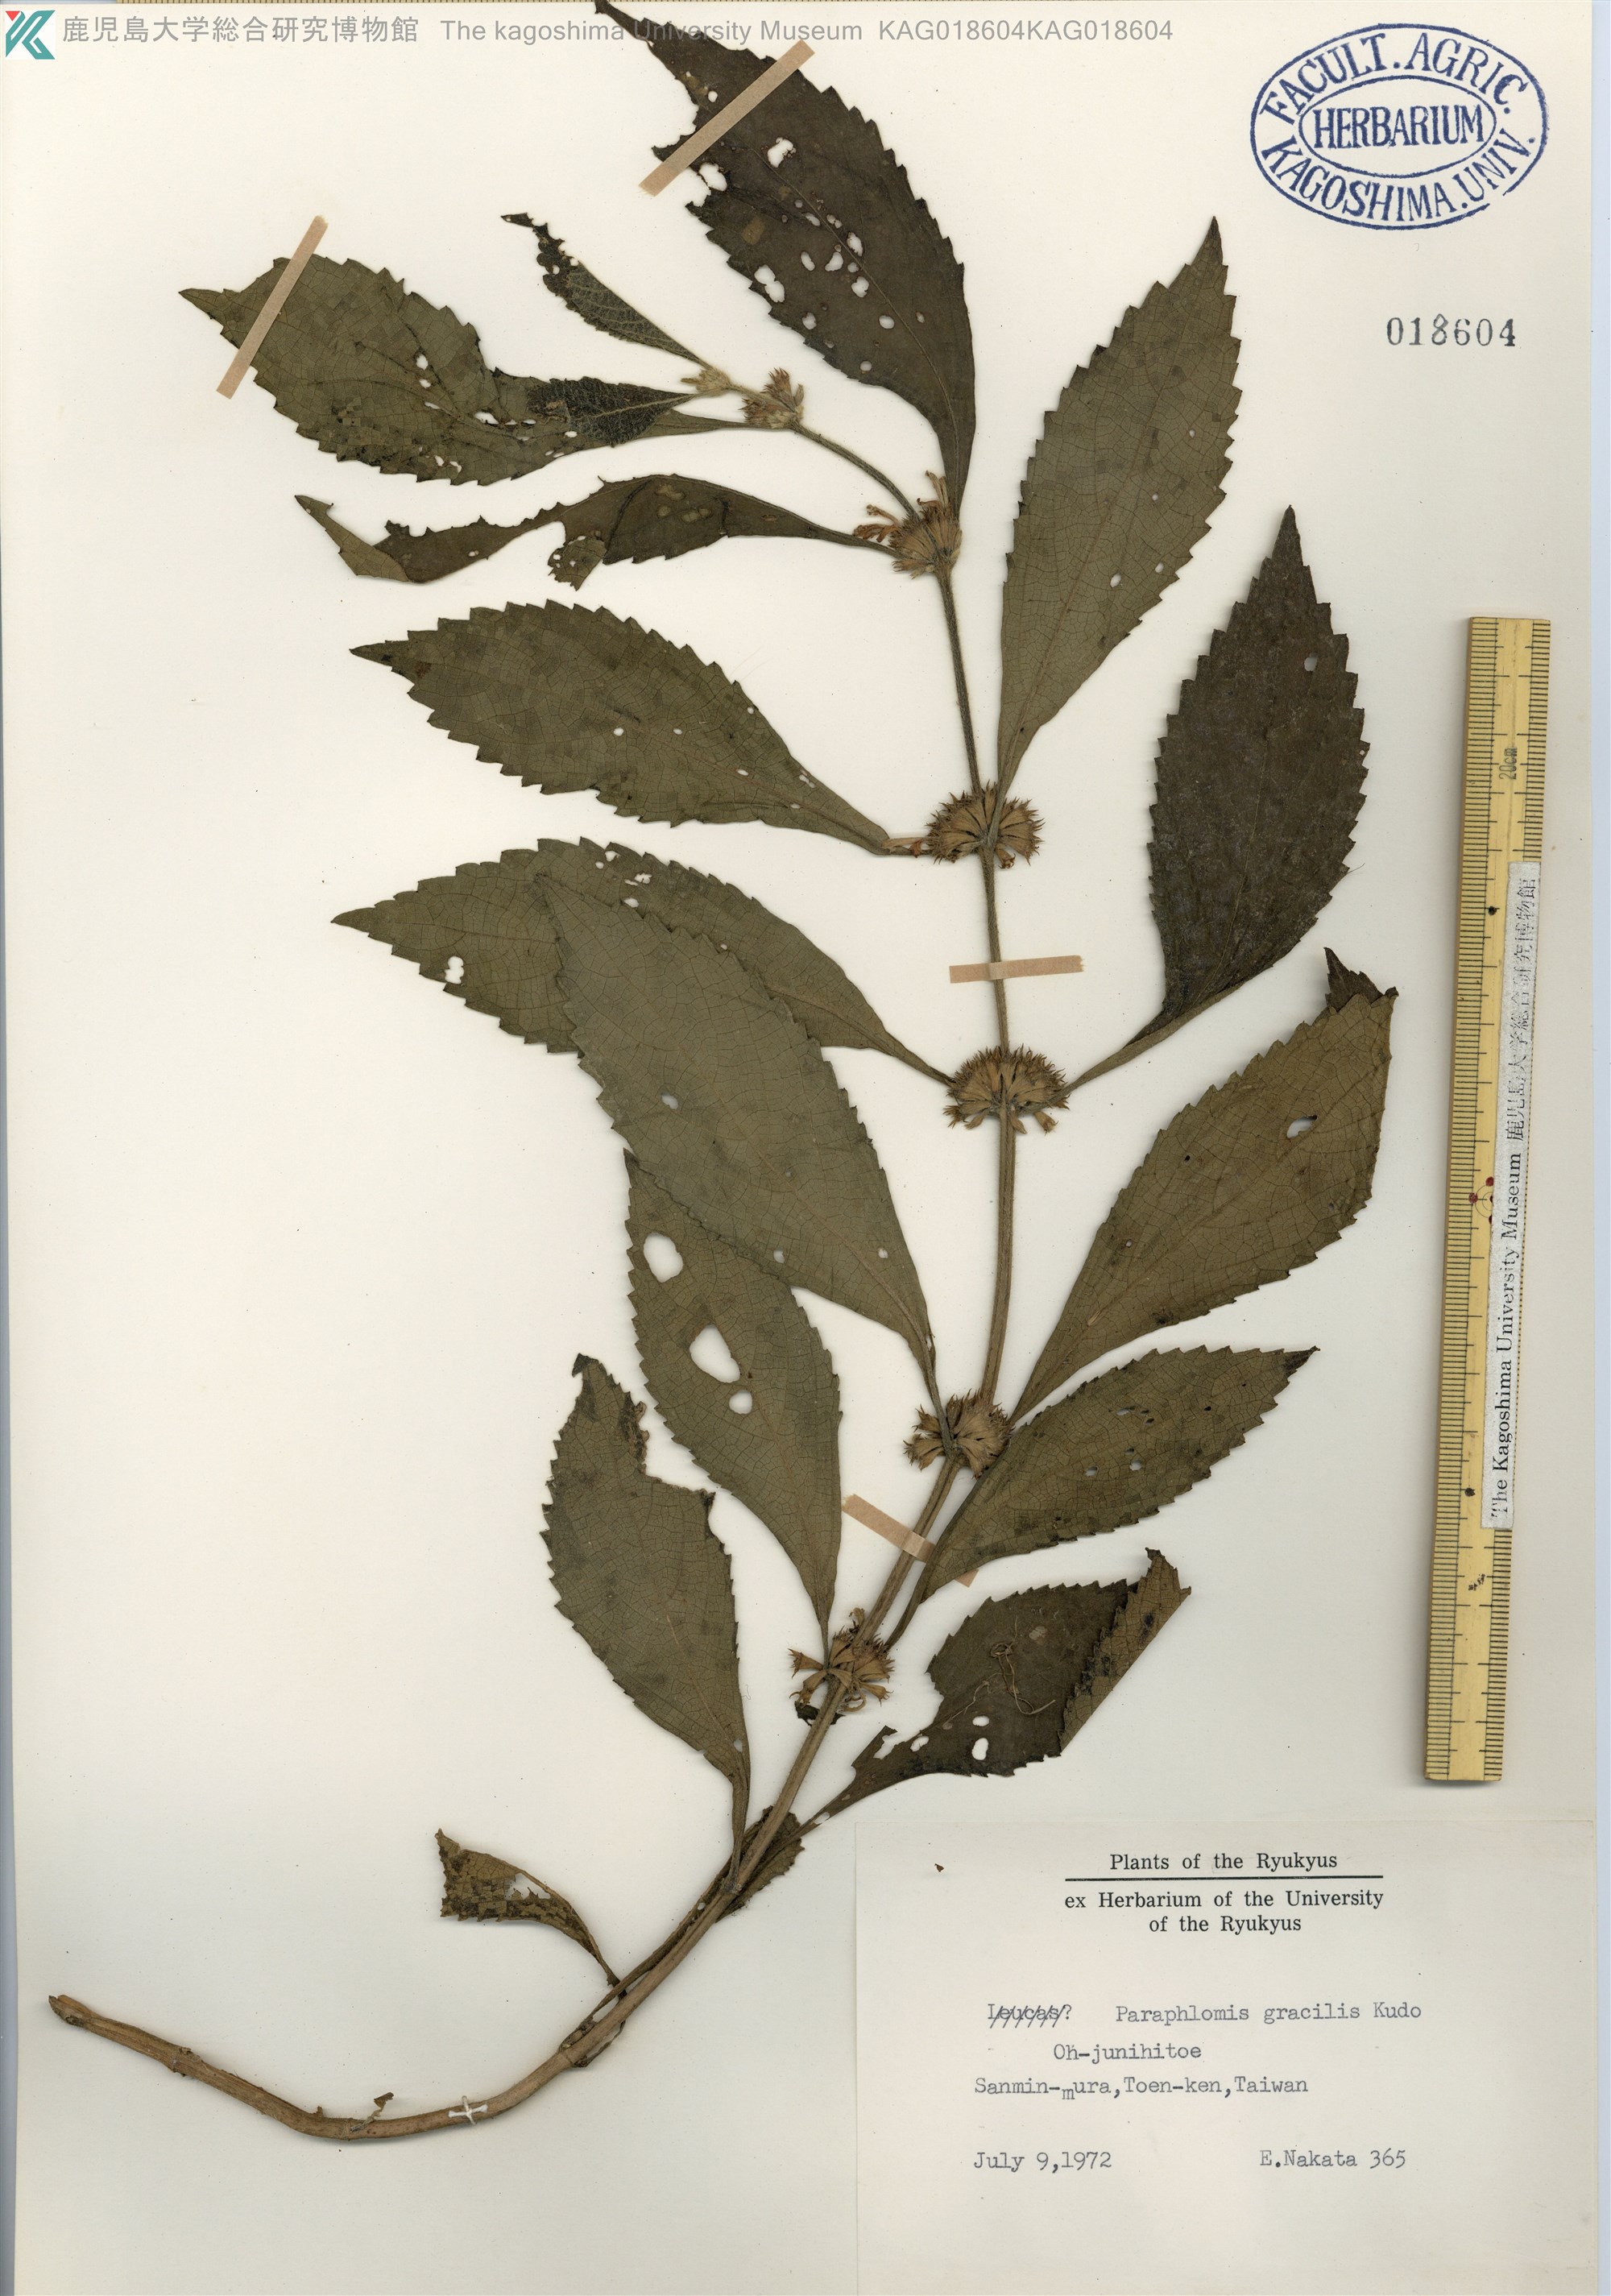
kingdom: Plantae
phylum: Tracheophyta
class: Magnoliopsida
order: Lamiales
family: Lamiaceae
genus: Paraphlomis
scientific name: Paraphlomis formosana
